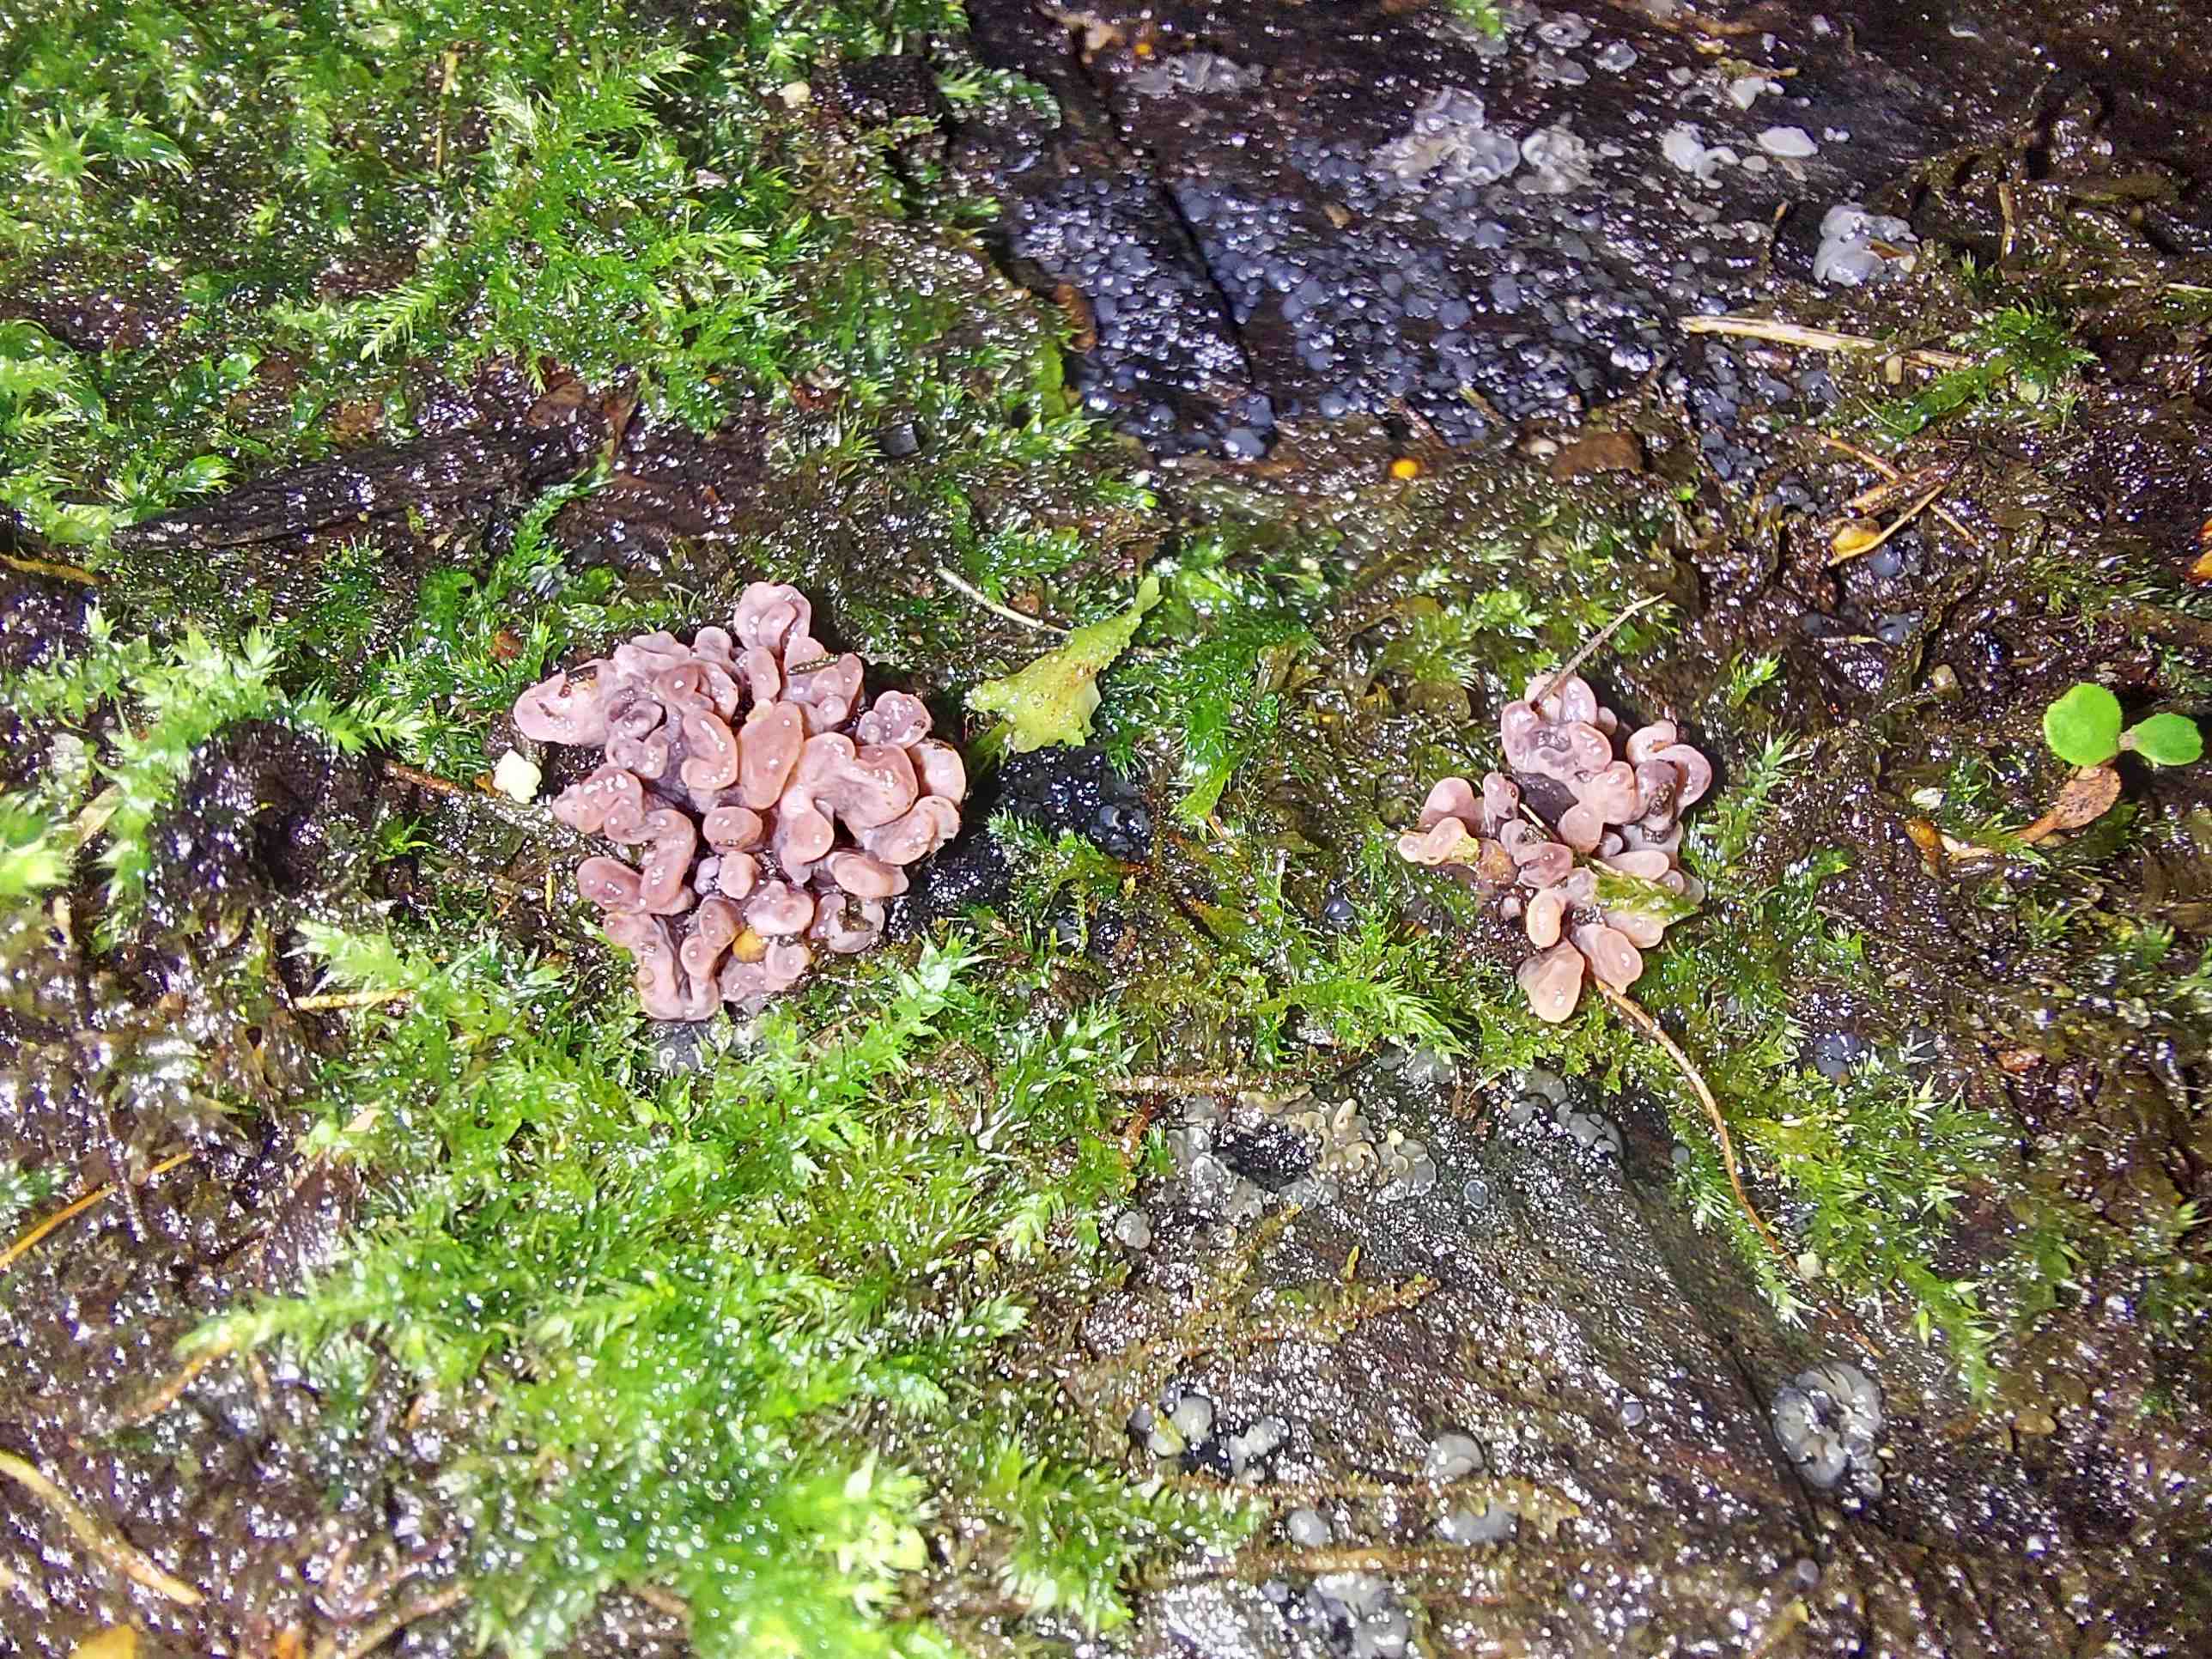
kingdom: Fungi
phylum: Ascomycota
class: Leotiomycetes
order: Helotiales
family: Gelatinodiscaceae
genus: Ascocoryne
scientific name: Ascocoryne sarcoides
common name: rødlilla sejskive
